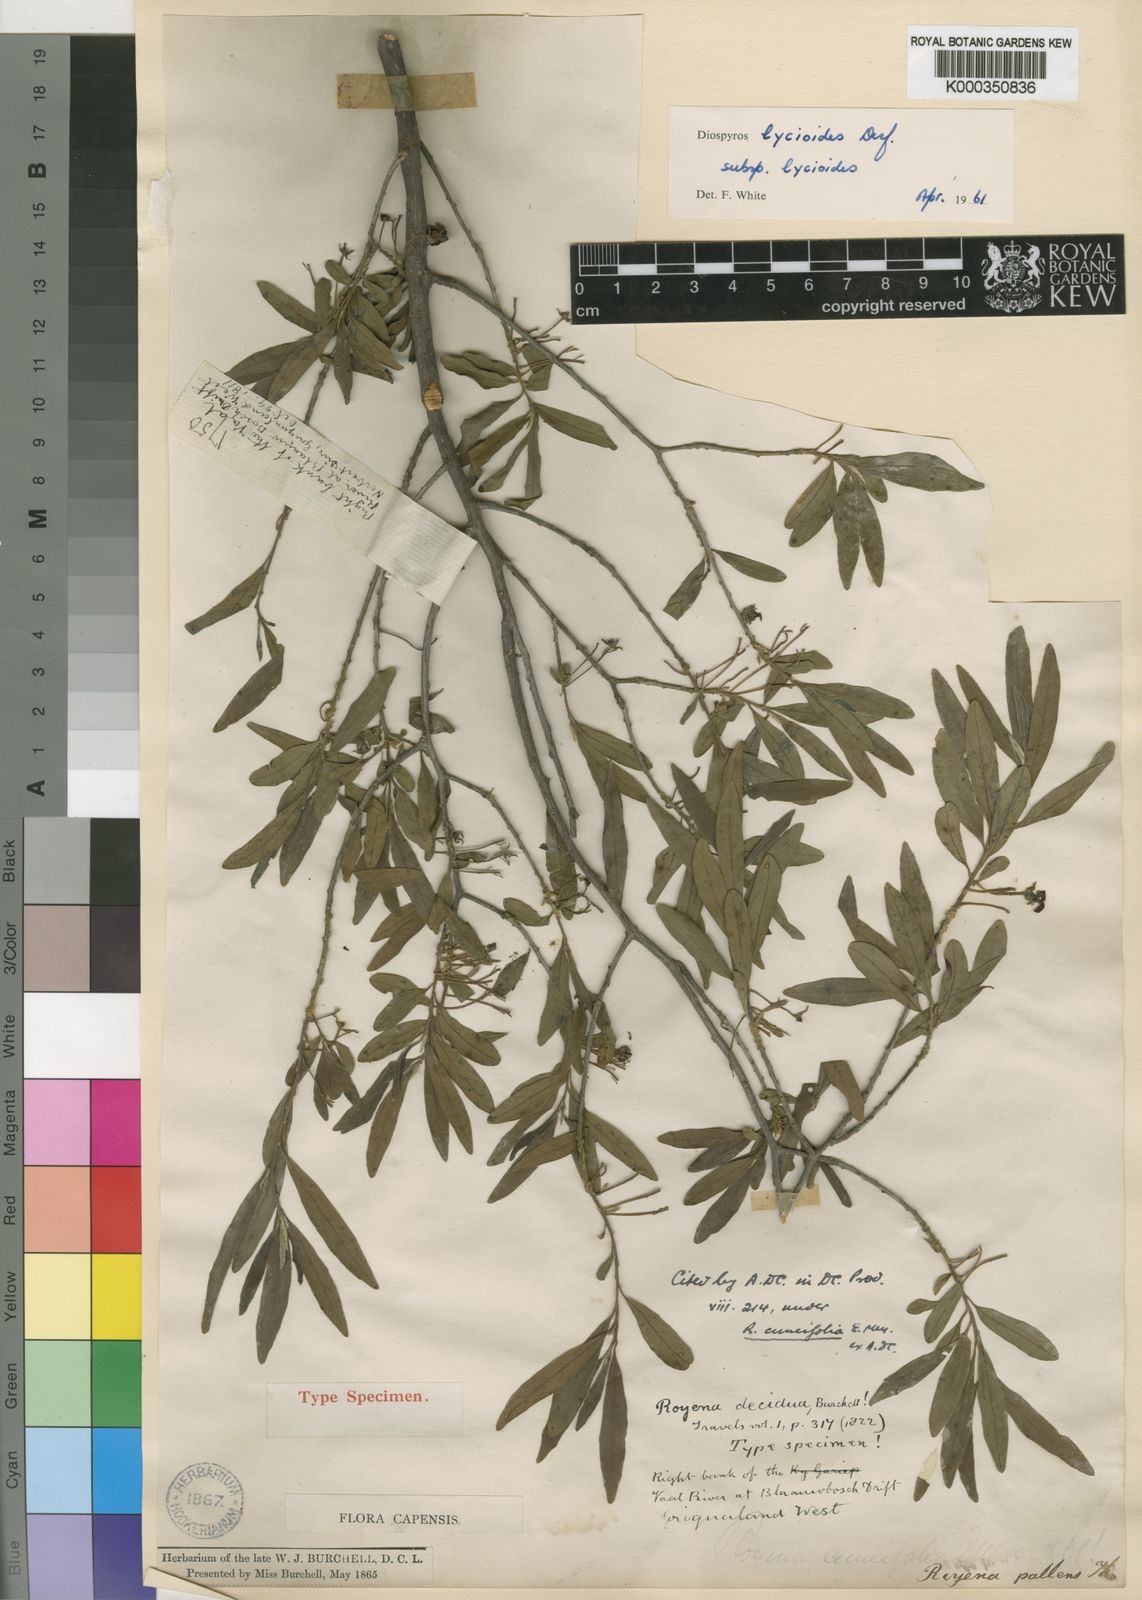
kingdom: Plantae
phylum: Tracheophyta
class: Magnoliopsida
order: Ericales
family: Ebenaceae
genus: Diospyros
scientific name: Diospyros lycioides
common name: Red star apple
